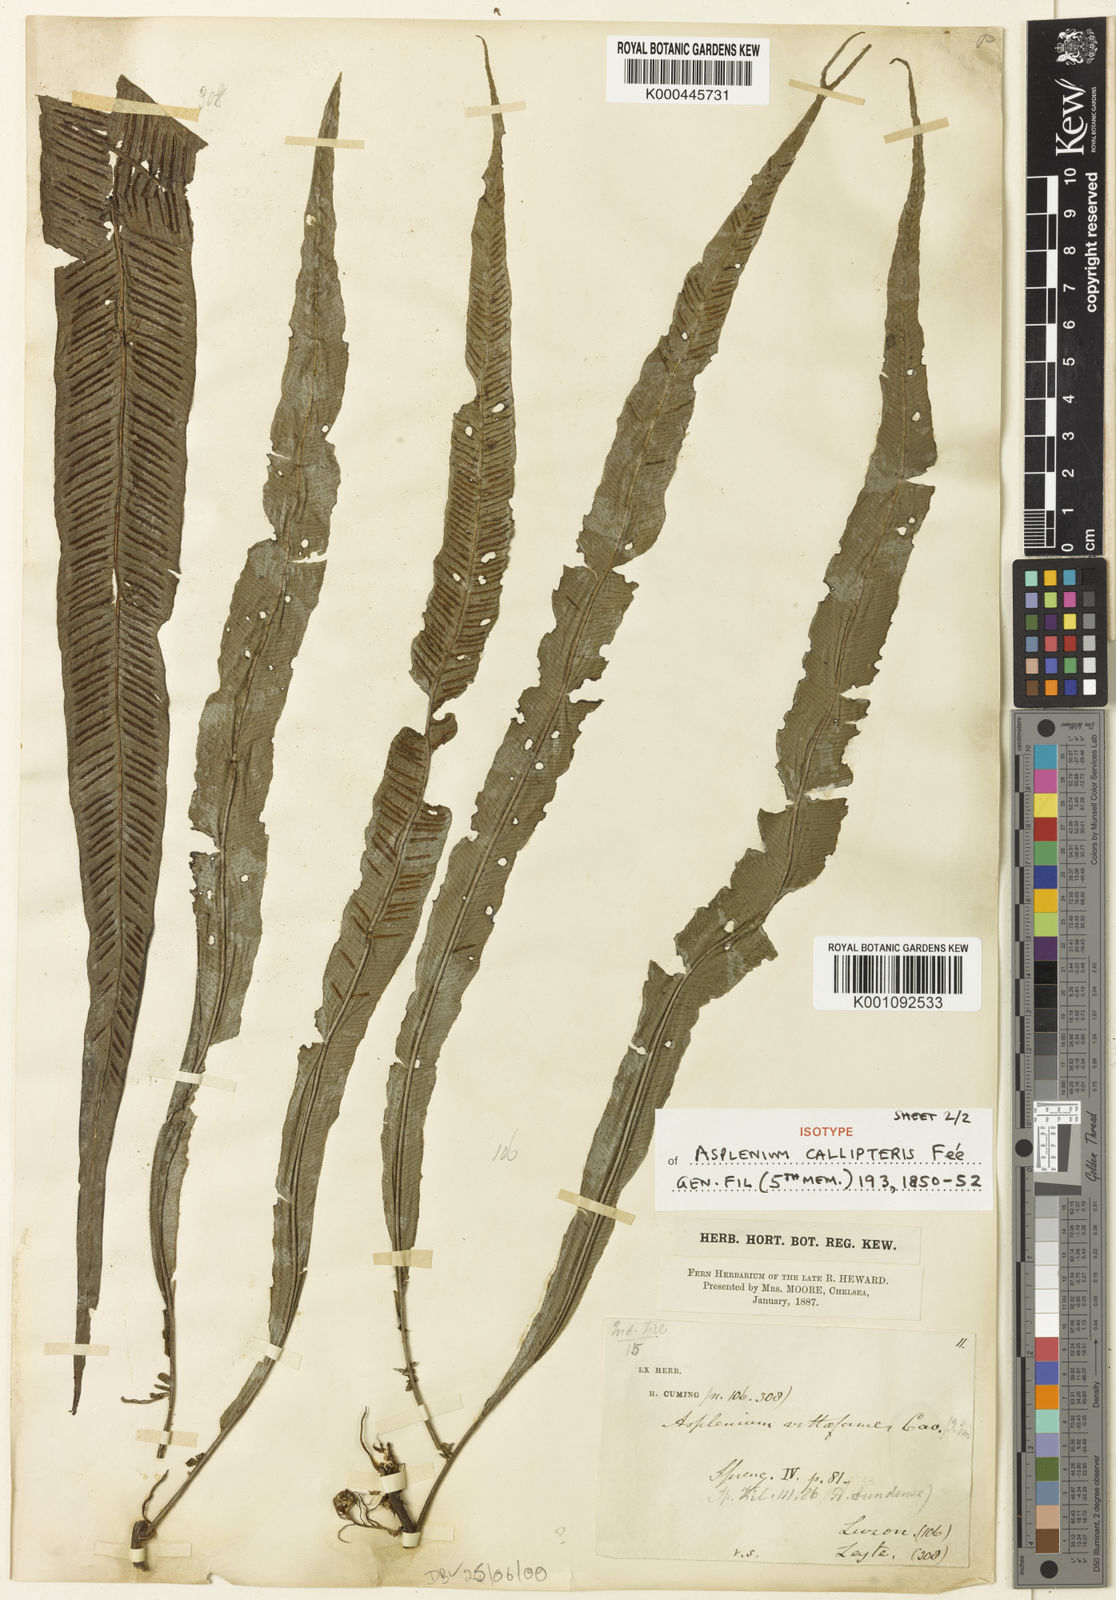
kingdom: Plantae
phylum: Tracheophyta
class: Polypodiopsida
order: Polypodiales
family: Aspleniaceae
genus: Asplenium
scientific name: Asplenium
